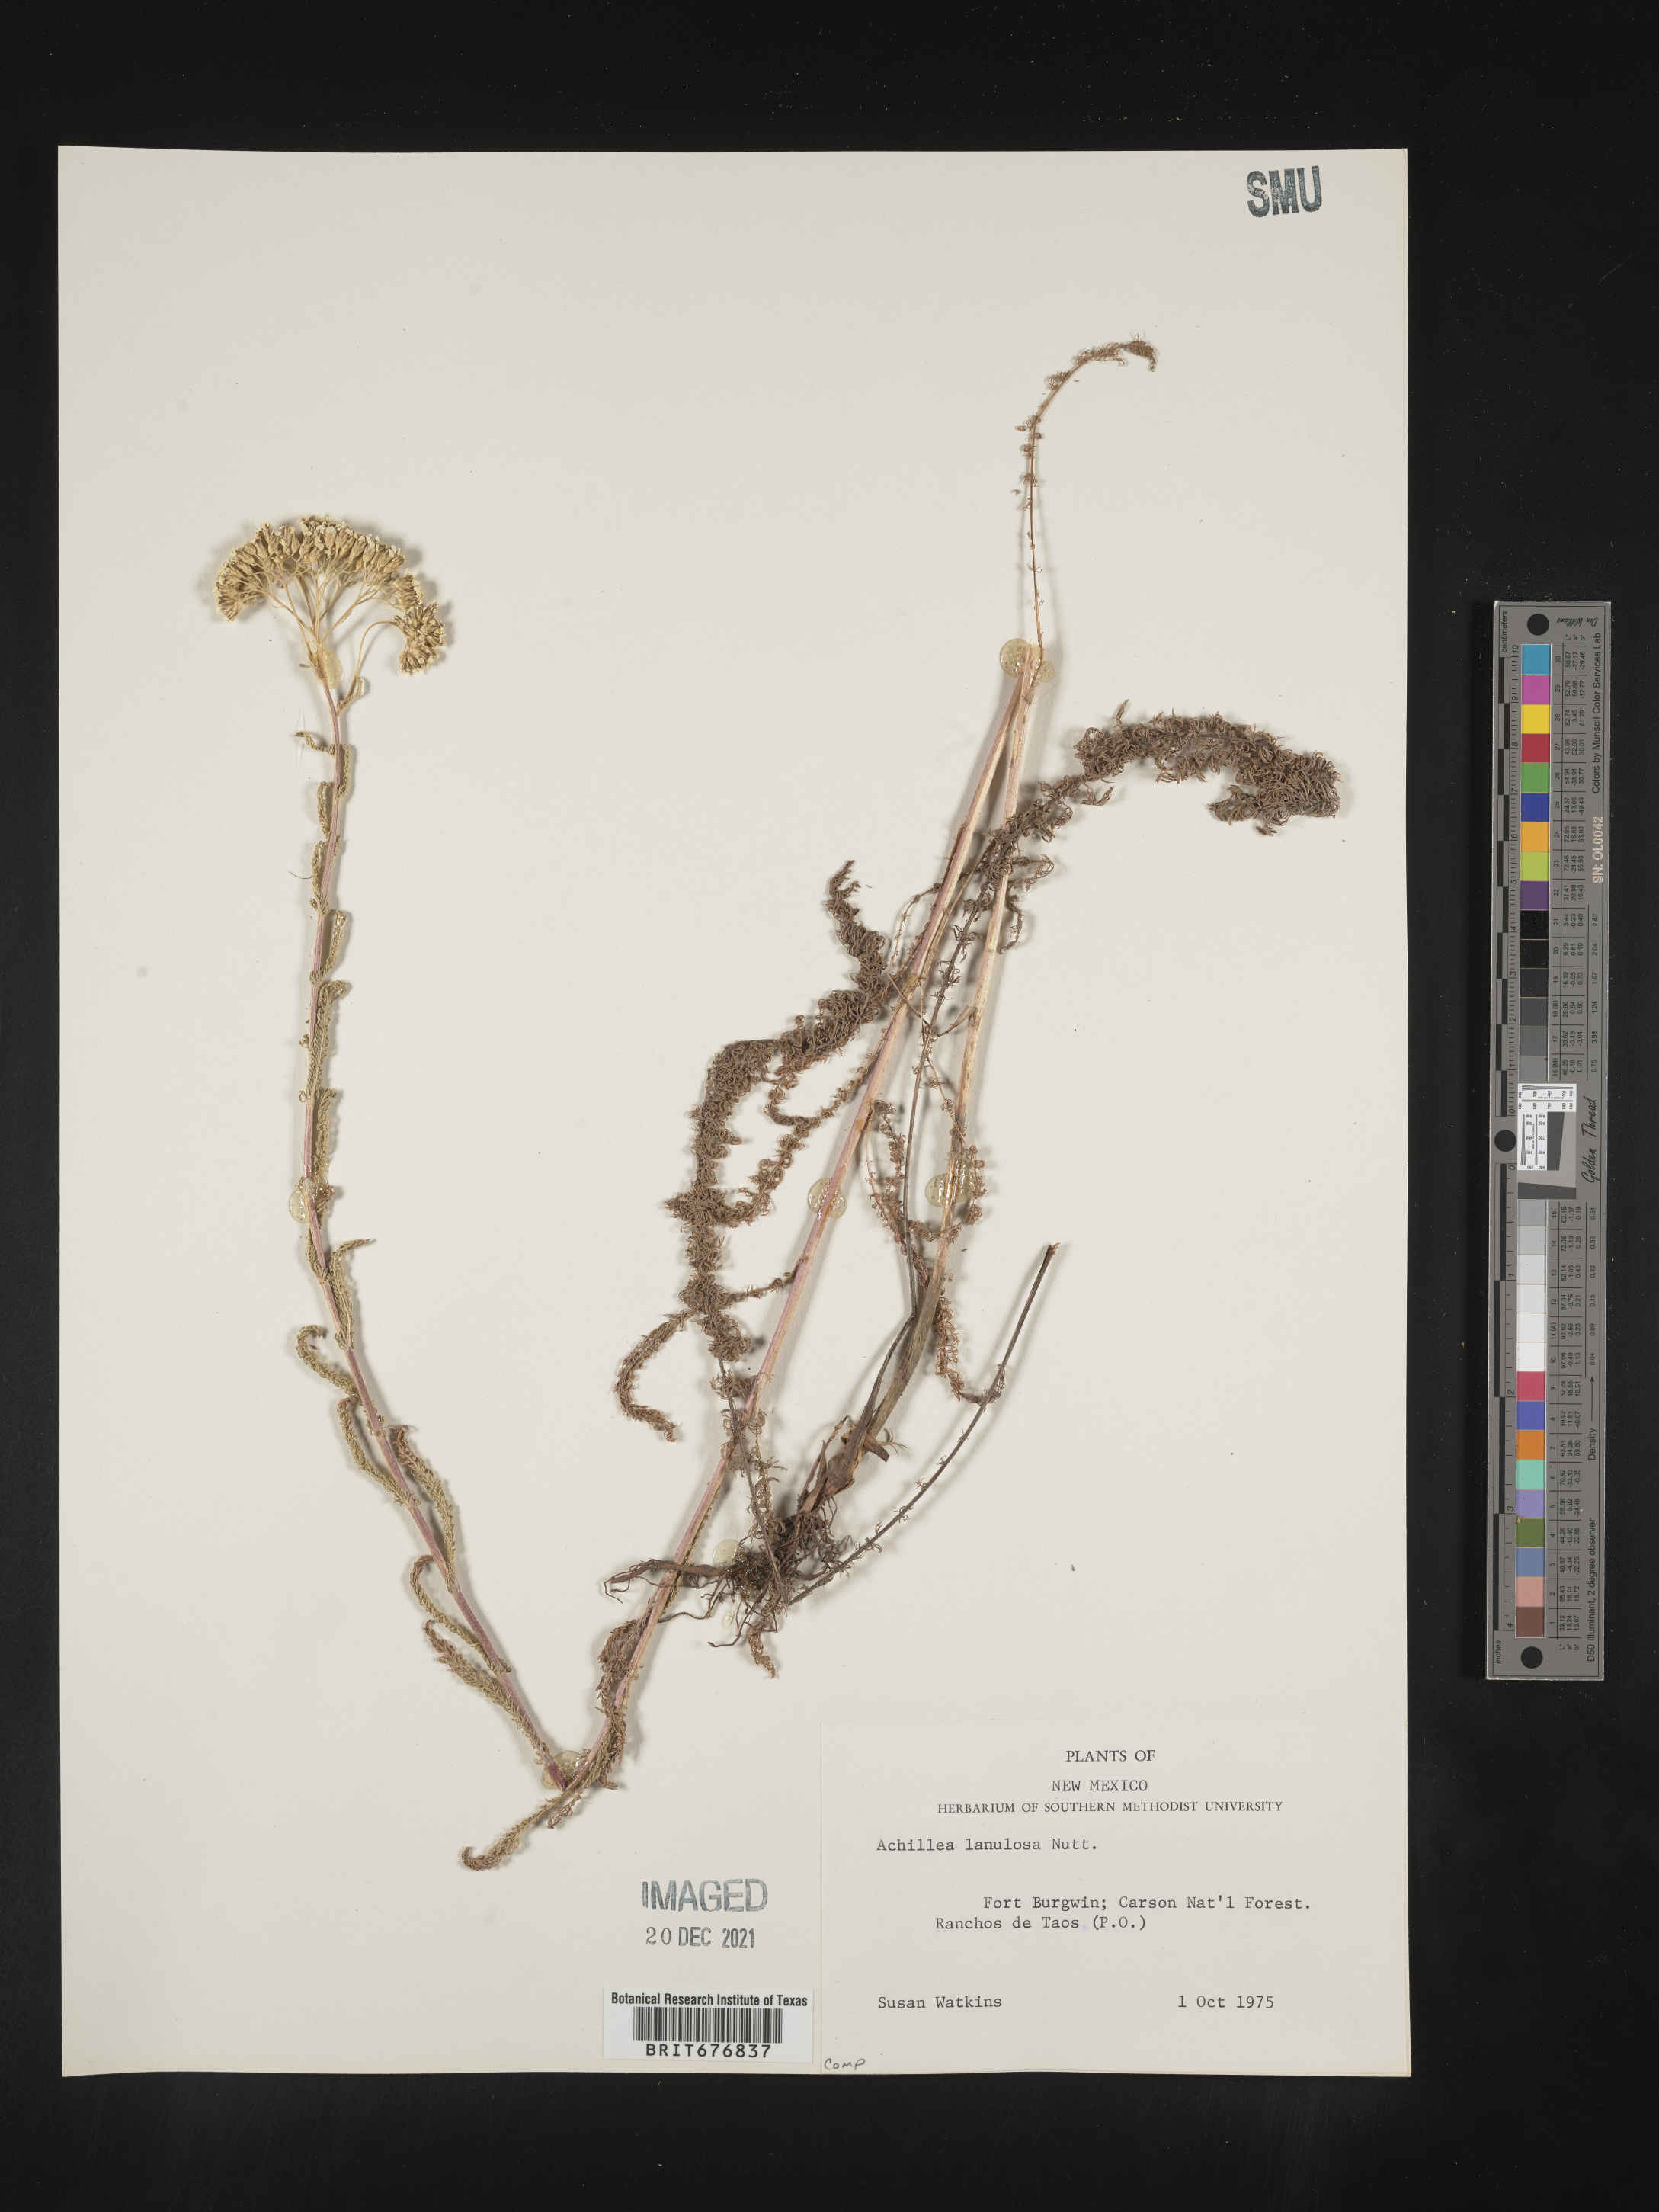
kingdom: Plantae
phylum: Tracheophyta
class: Magnoliopsida
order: Asterales
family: Asteraceae
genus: Achillea
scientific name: Achillea millefolium
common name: Yarrow
